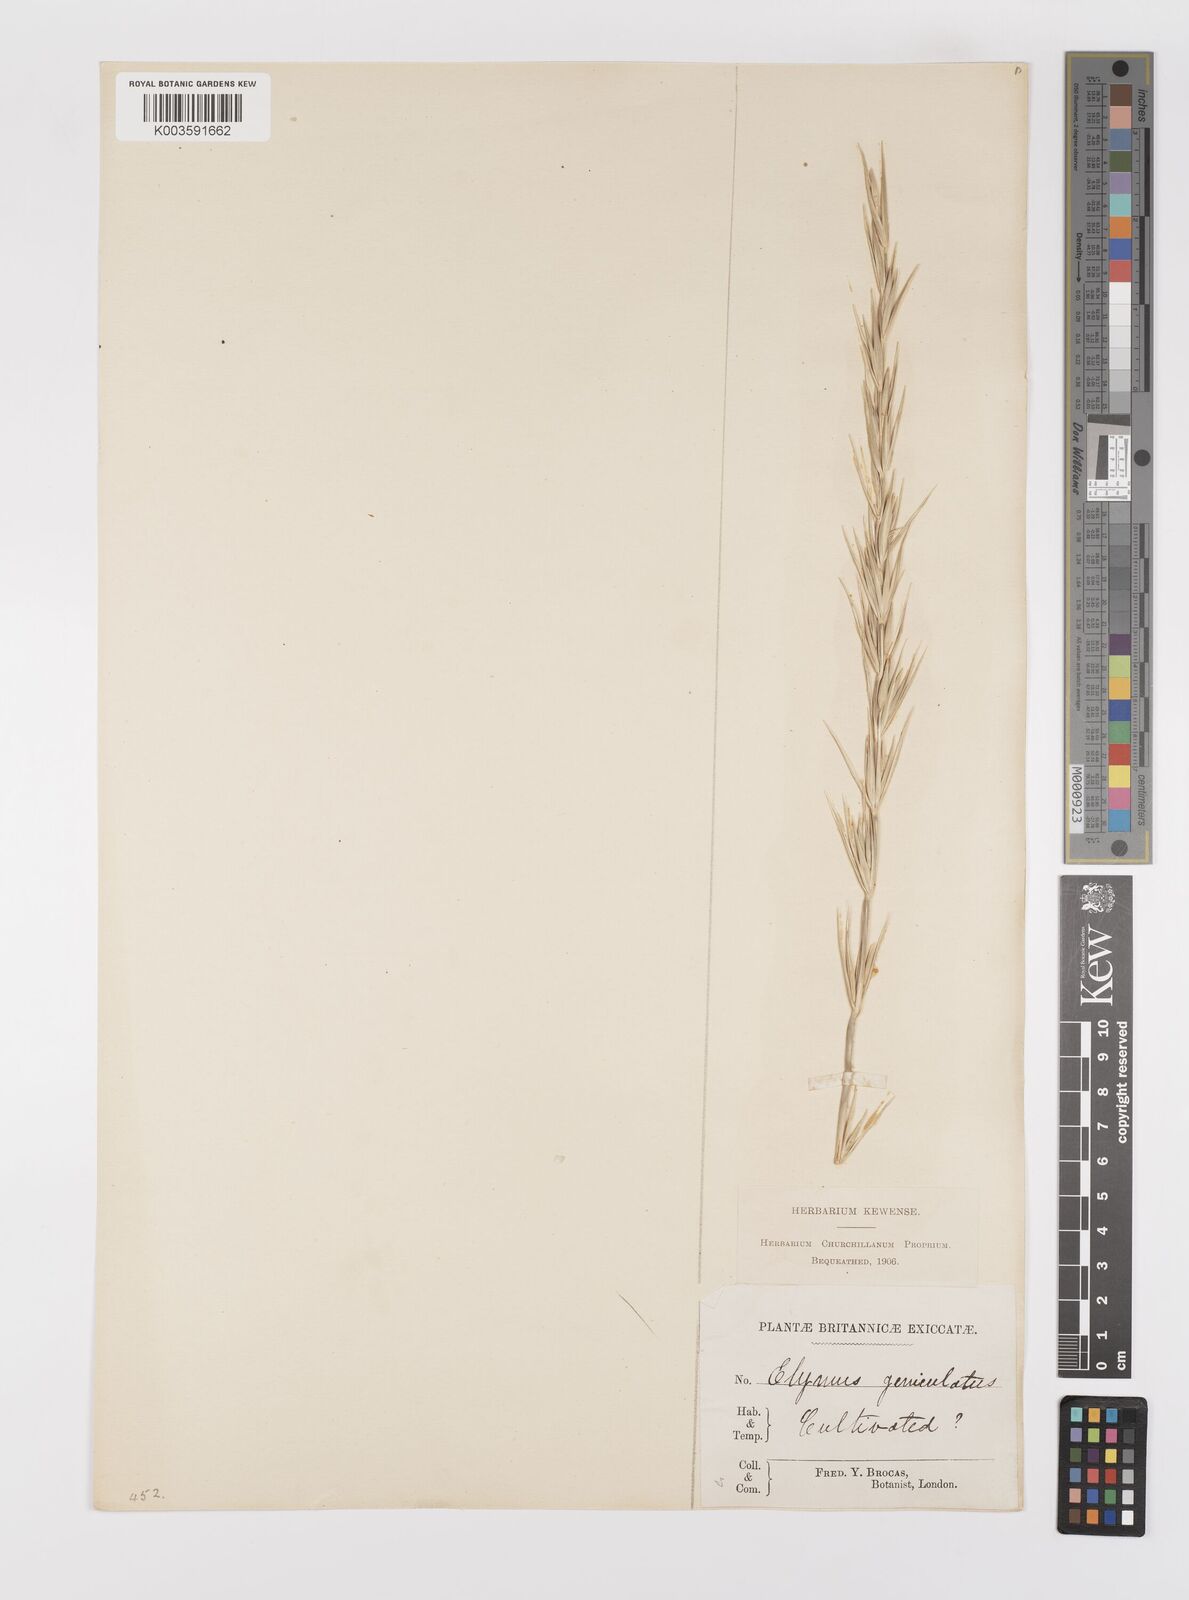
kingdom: Plantae
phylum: Tracheophyta
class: Liliopsida
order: Poales
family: Poaceae
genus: Leymus
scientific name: Leymus arenarius
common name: Lyme-grass
